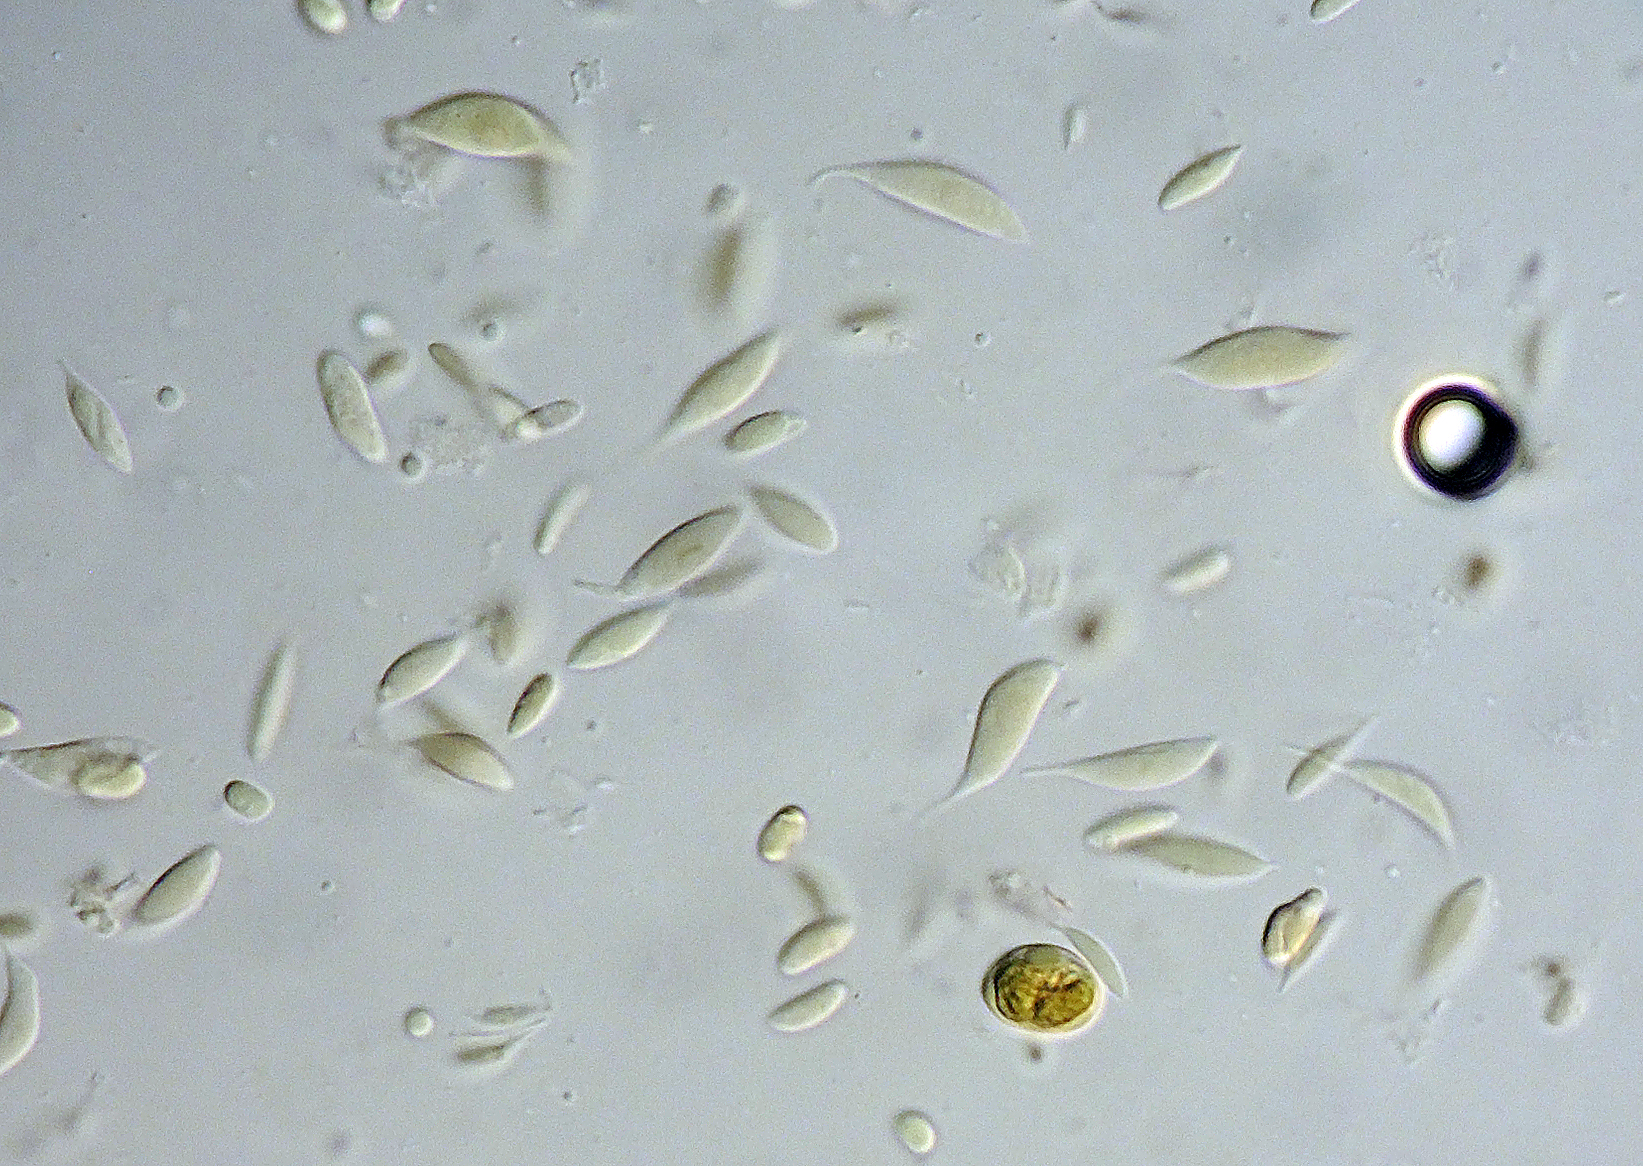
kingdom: Fungi
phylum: Basidiomycota
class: Agaricomycetes
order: Trechisporales
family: Hydnodontaceae
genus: Brevicellicium
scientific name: Brevicellicium
